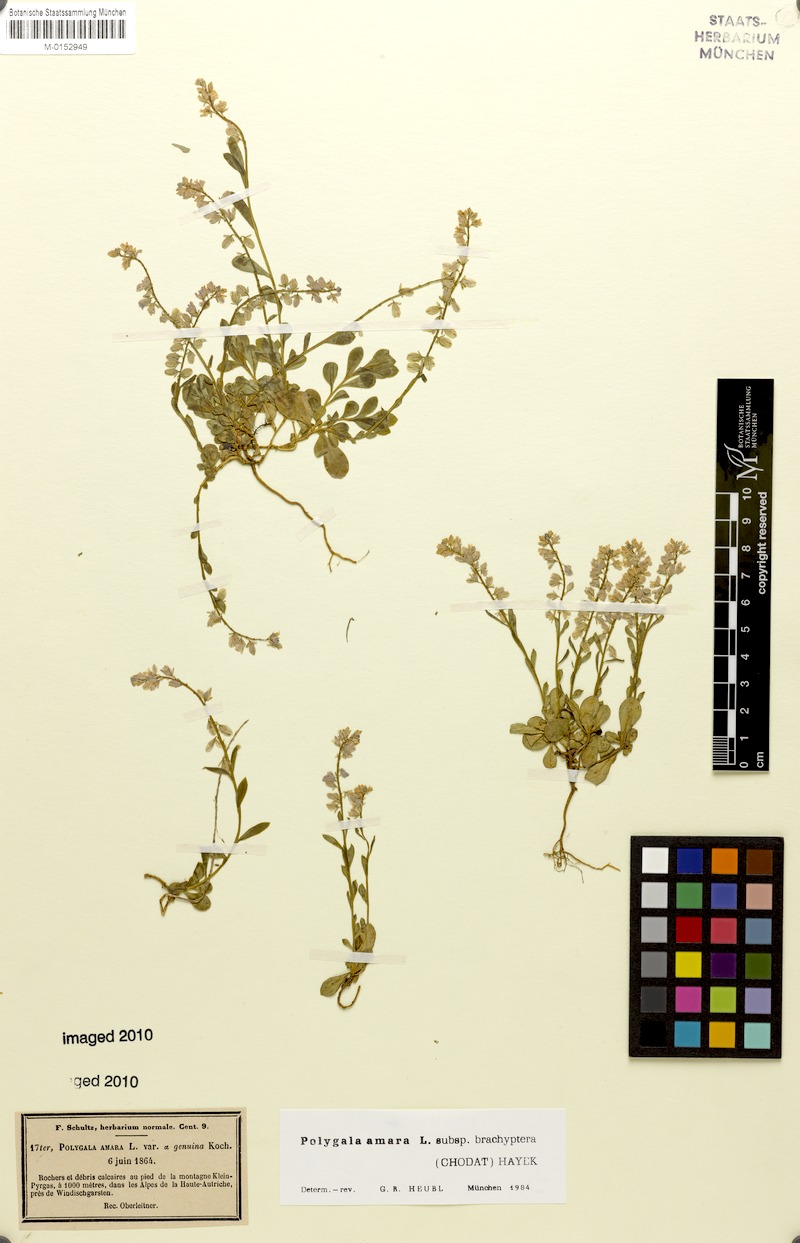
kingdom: Plantae
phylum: Tracheophyta
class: Magnoliopsida
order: Fabales
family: Polygalaceae
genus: Polygala
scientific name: Polygala amara
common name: Milkwort
